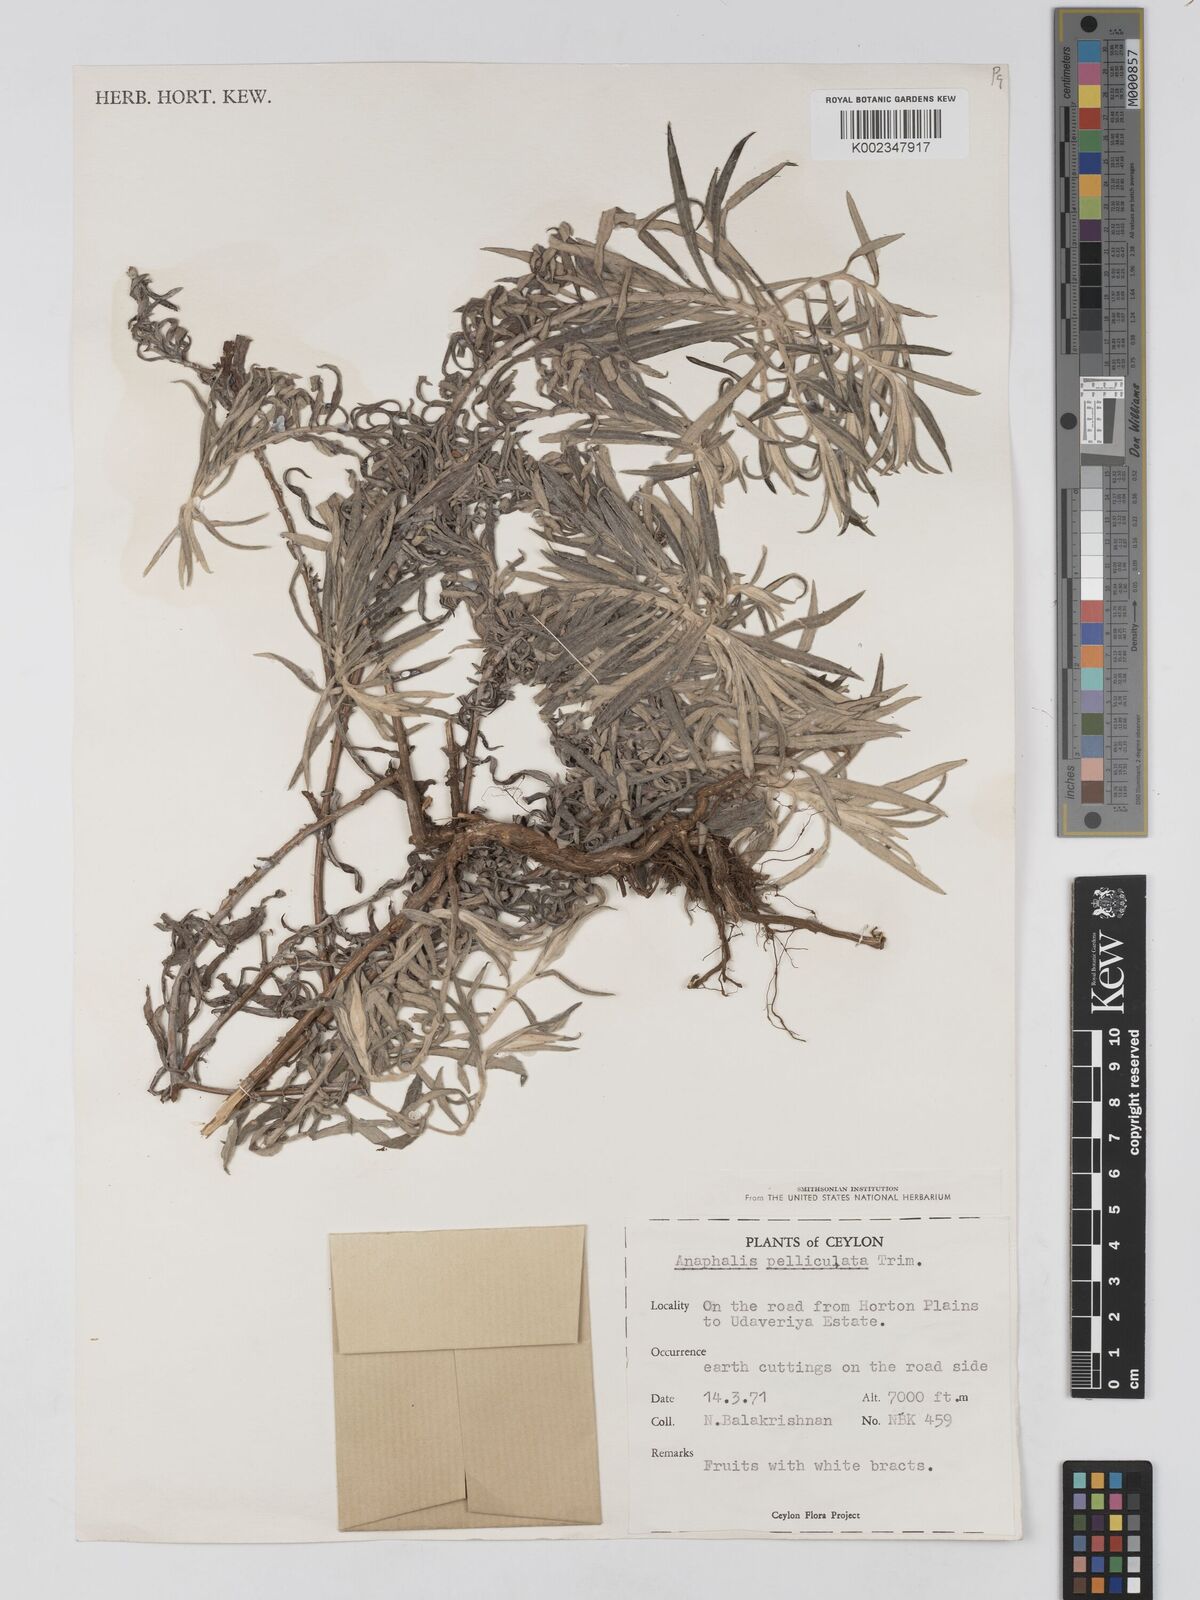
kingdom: Plantae
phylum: Tracheophyta
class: Magnoliopsida
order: Asterales
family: Asteraceae
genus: Anaphalis
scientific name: Anaphalis pelliculata
